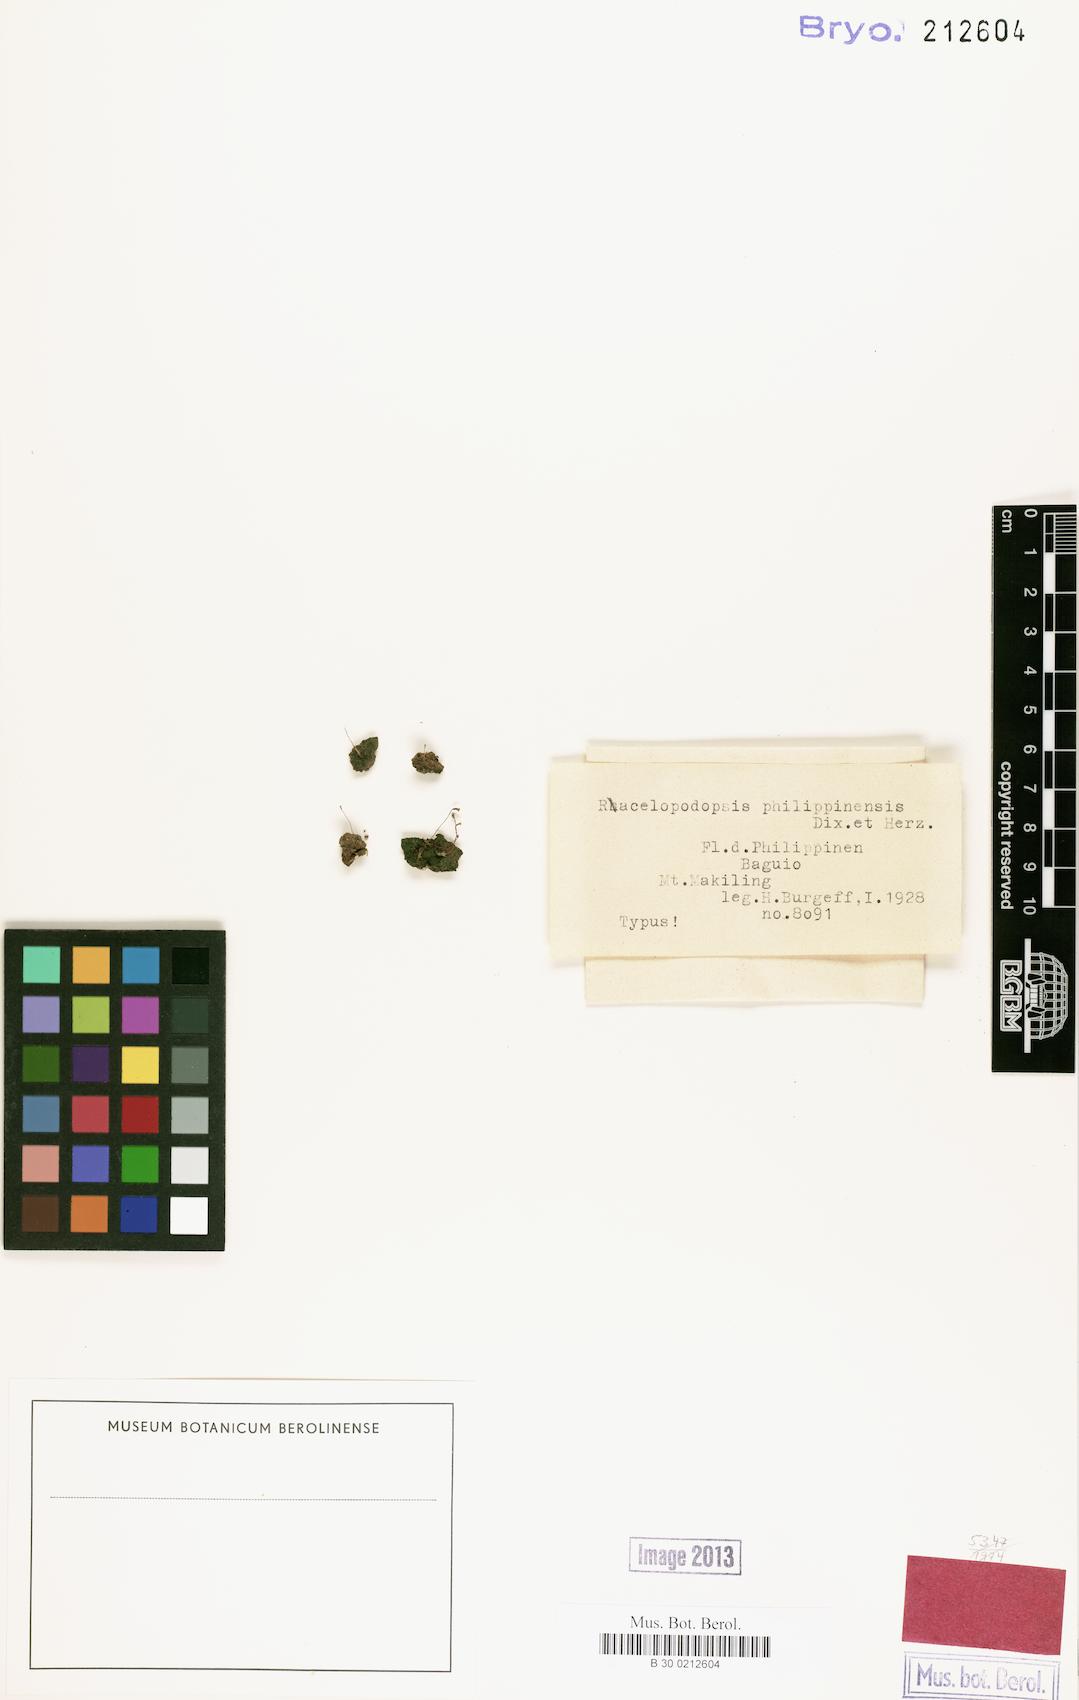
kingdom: Plantae
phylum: Bryophyta
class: Polytrichopsida
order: Polytrichales
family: Polytrichaceae
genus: Pogonatum
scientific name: Pogonatum
